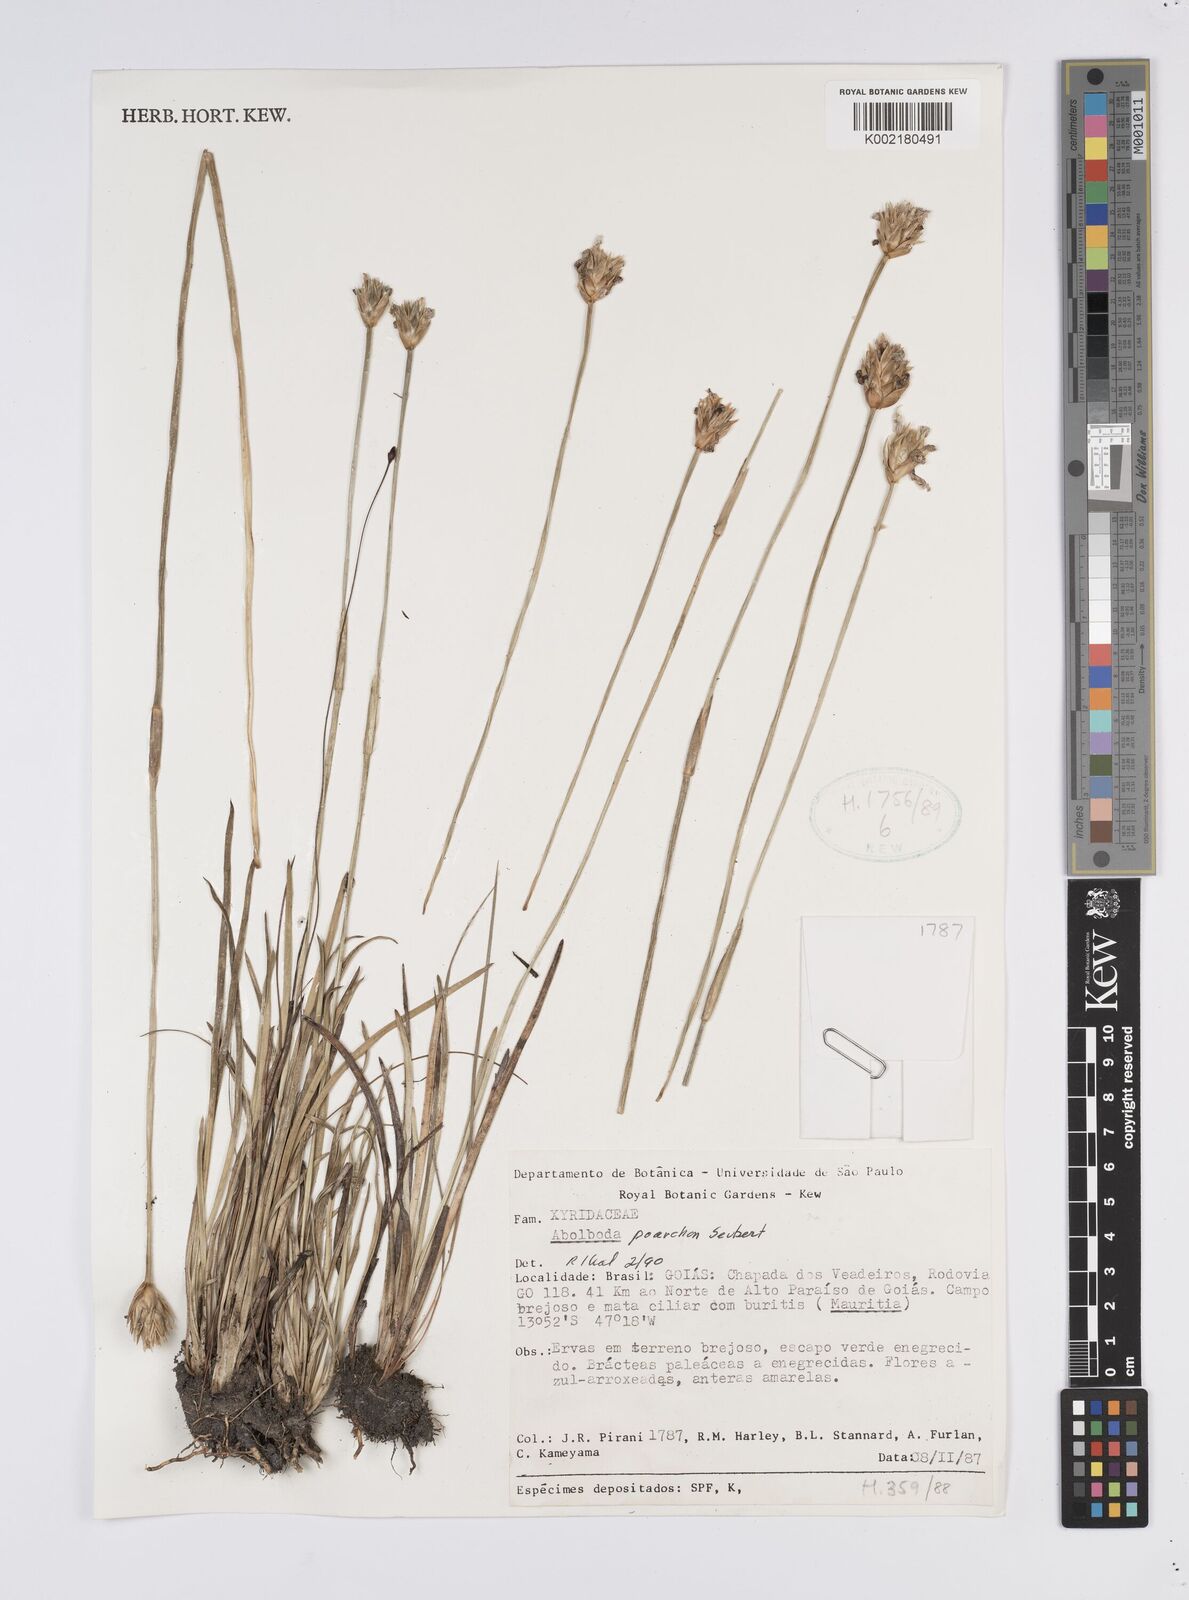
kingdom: Plantae
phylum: Tracheophyta
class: Liliopsida
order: Poales
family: Xyridaceae
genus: Abolboda
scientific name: Abolboda poarchon
